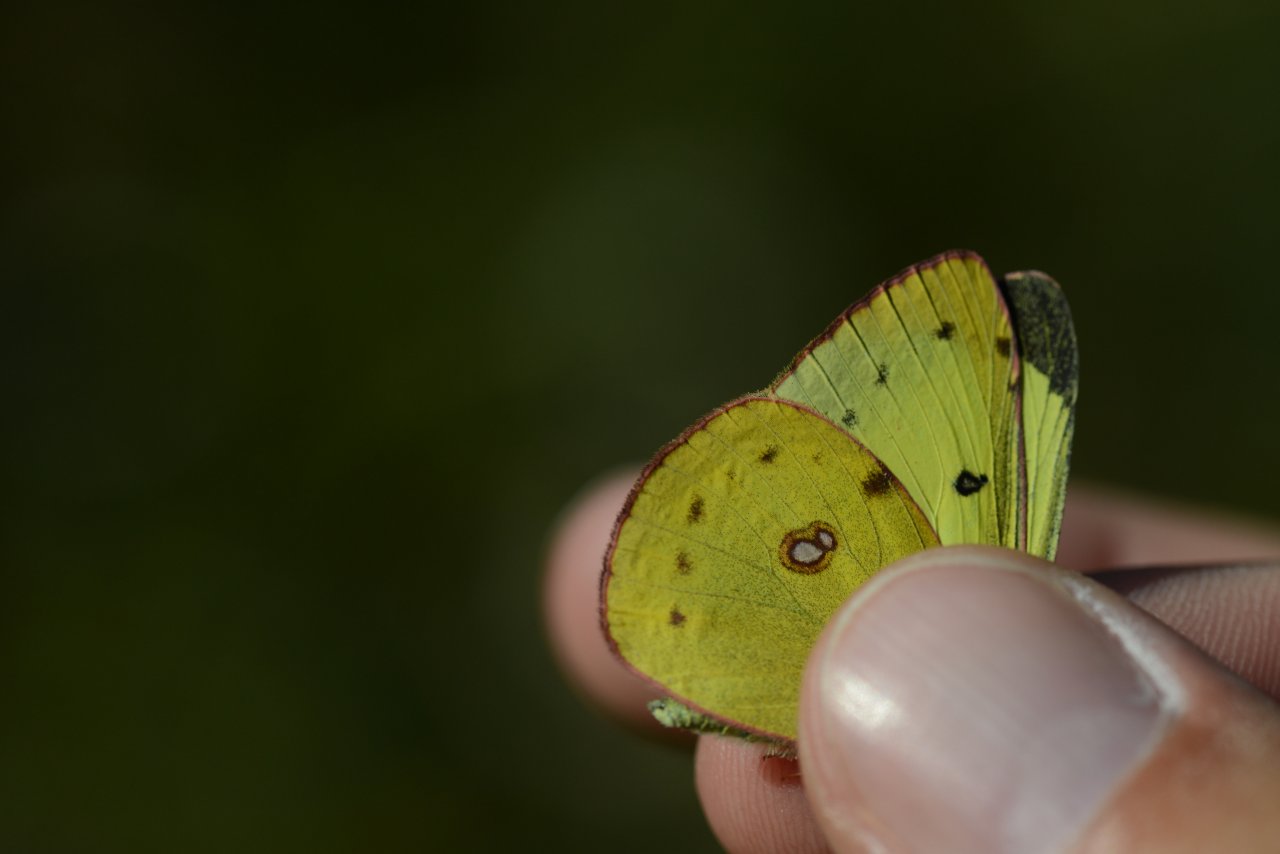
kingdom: Animalia
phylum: Arthropoda
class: Insecta
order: Lepidoptera
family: Pieridae
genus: Colias
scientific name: Colias philodice
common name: Clouded Sulphur
